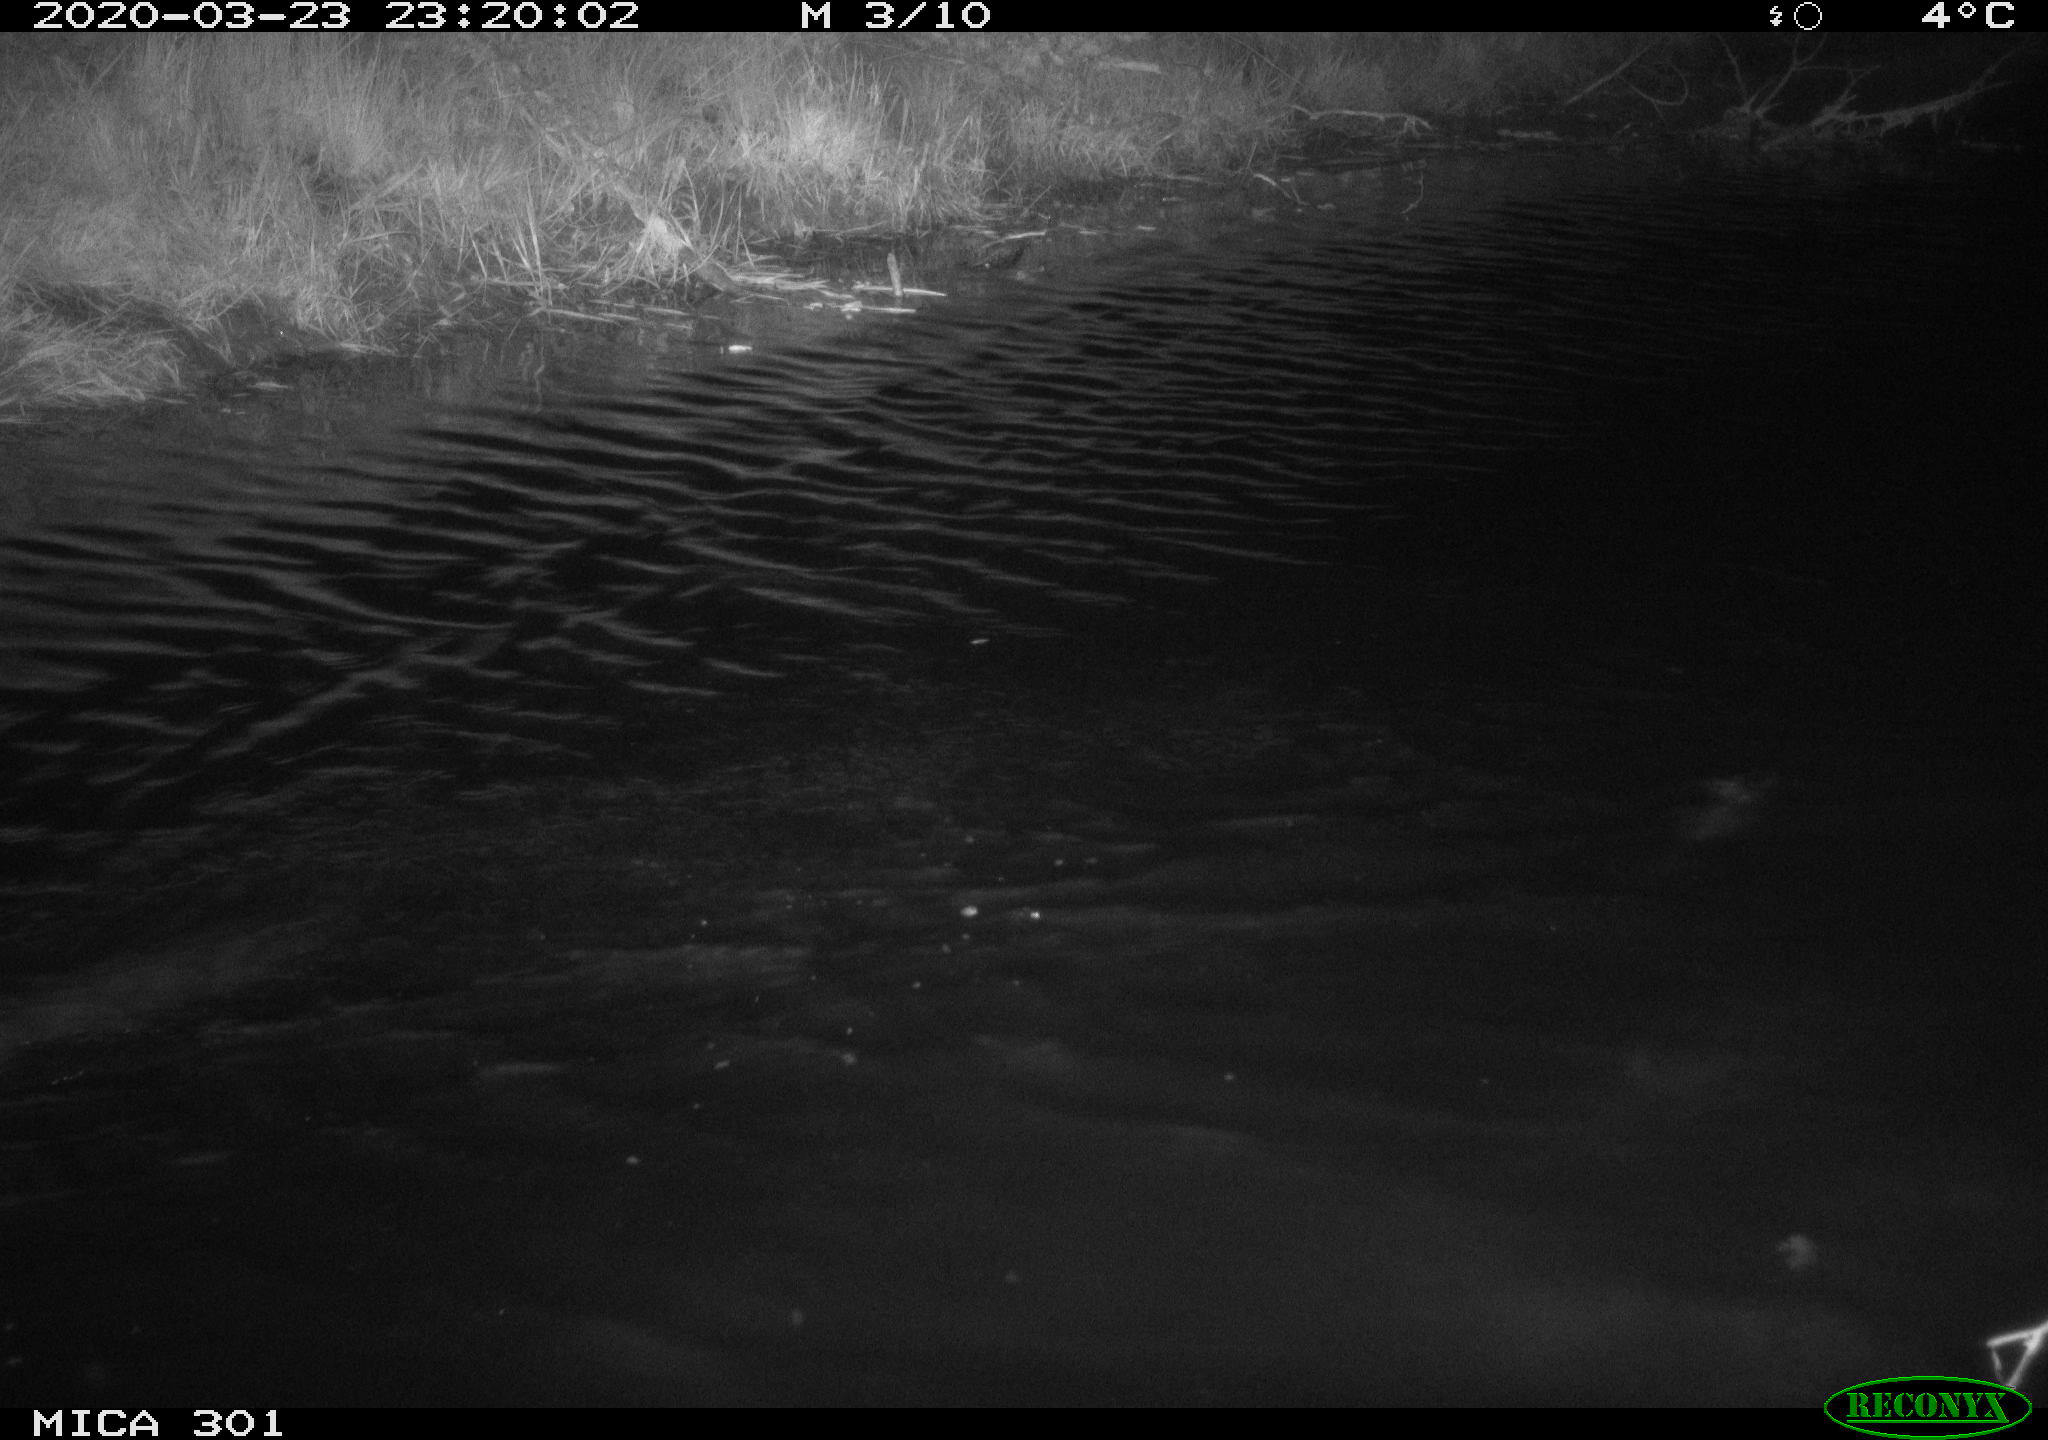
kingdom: Animalia
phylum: Chordata
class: Mammalia
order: Rodentia
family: Castoridae
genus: Castor
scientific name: Castor fiber
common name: Eurasian beaver
